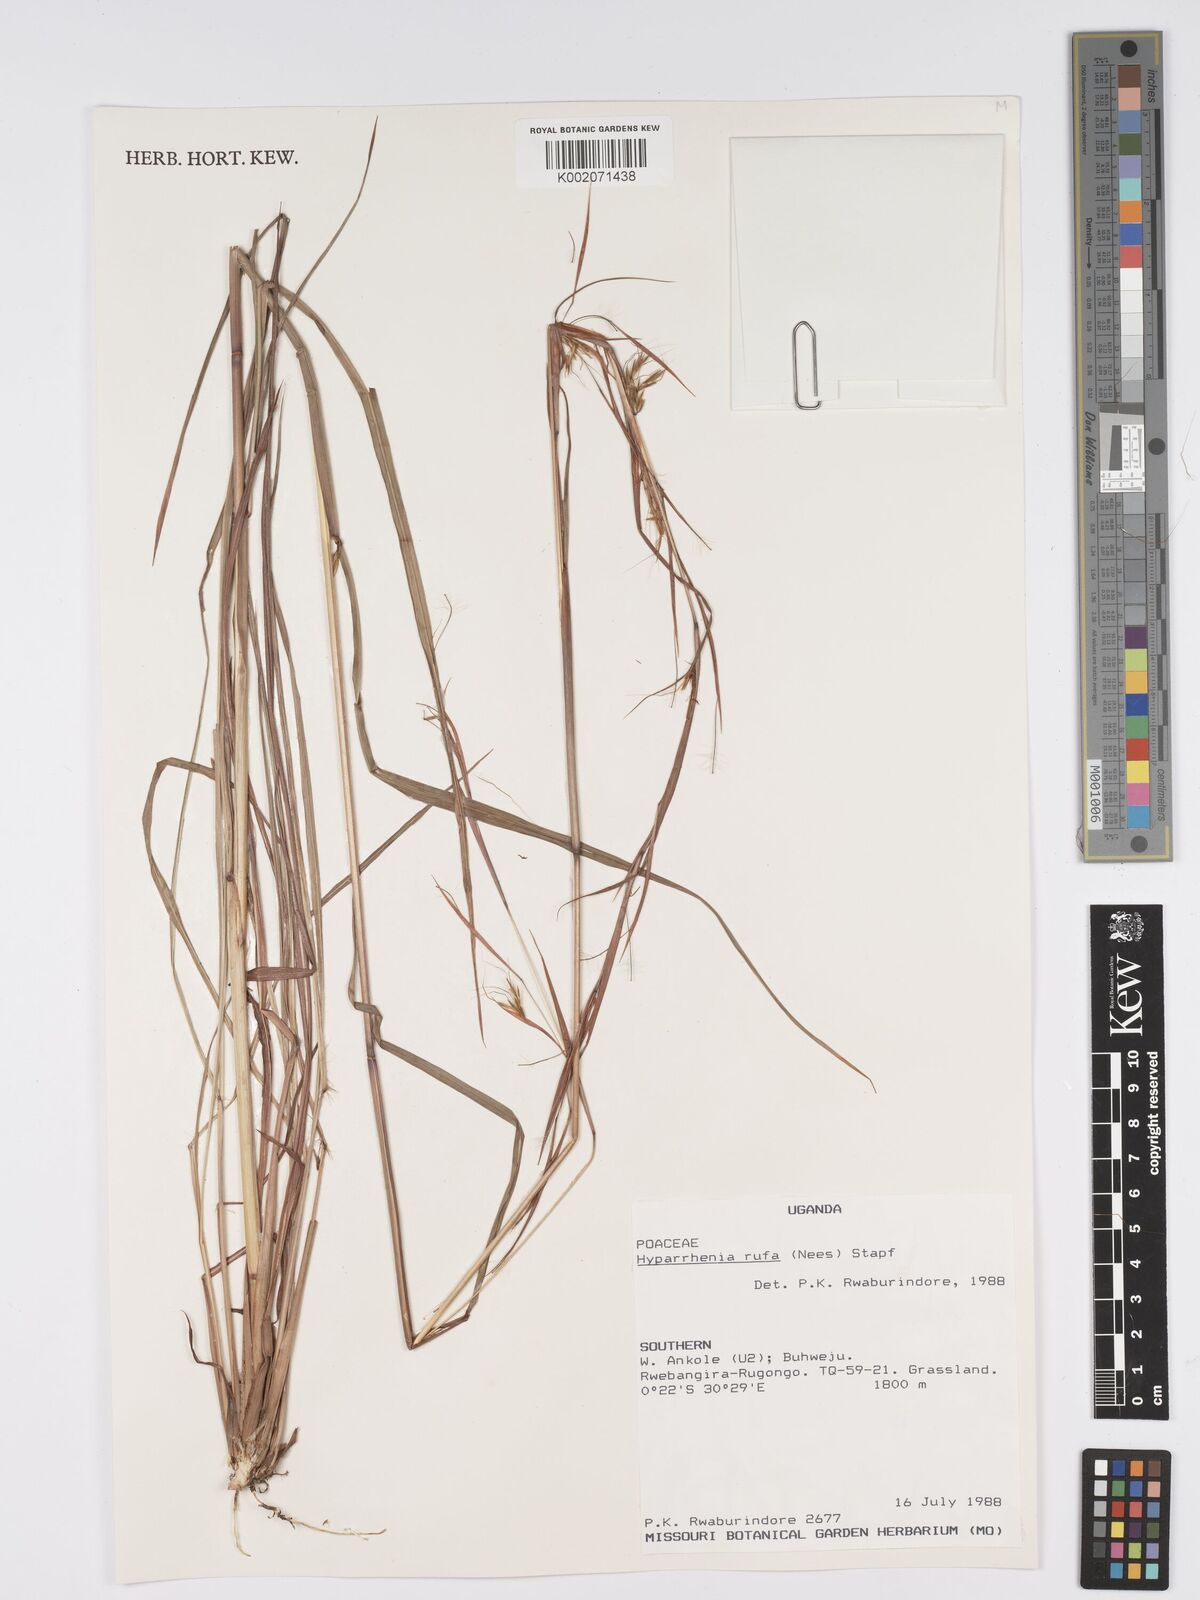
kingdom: Plantae
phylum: Tracheophyta
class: Liliopsida
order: Poales
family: Poaceae
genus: Hyparrhenia
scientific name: Hyparrhenia rufa
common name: Jaraguagrass
